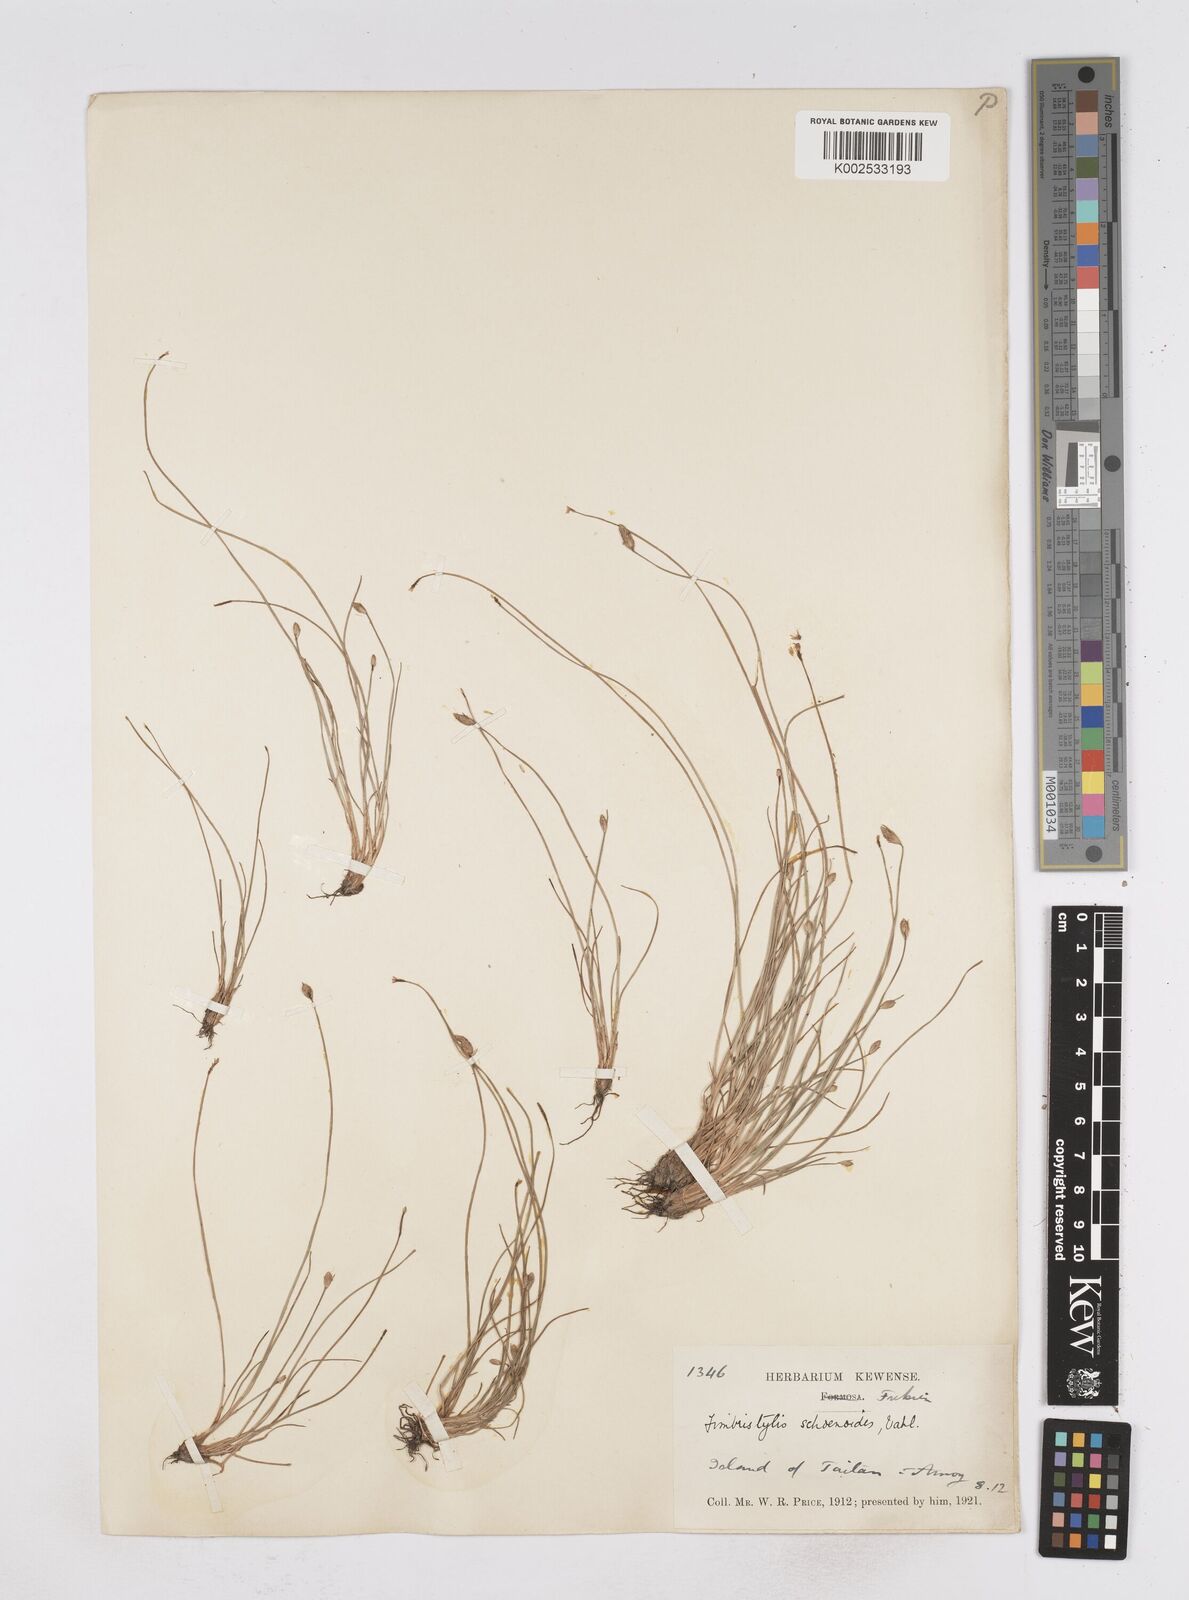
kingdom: Plantae
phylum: Tracheophyta
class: Liliopsida
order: Poales
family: Cyperaceae
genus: Fimbristylis
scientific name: Fimbristylis schoenoides
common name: Ditch fimbry
